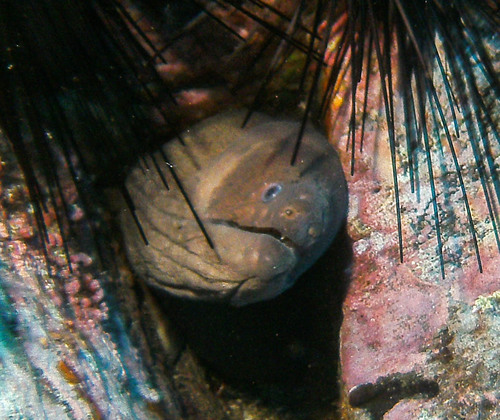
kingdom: Animalia
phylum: Chordata
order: Anguilliformes
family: Muraenidae
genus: Gymnothorax
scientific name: Gymnothorax unicolor
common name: Brown moray
